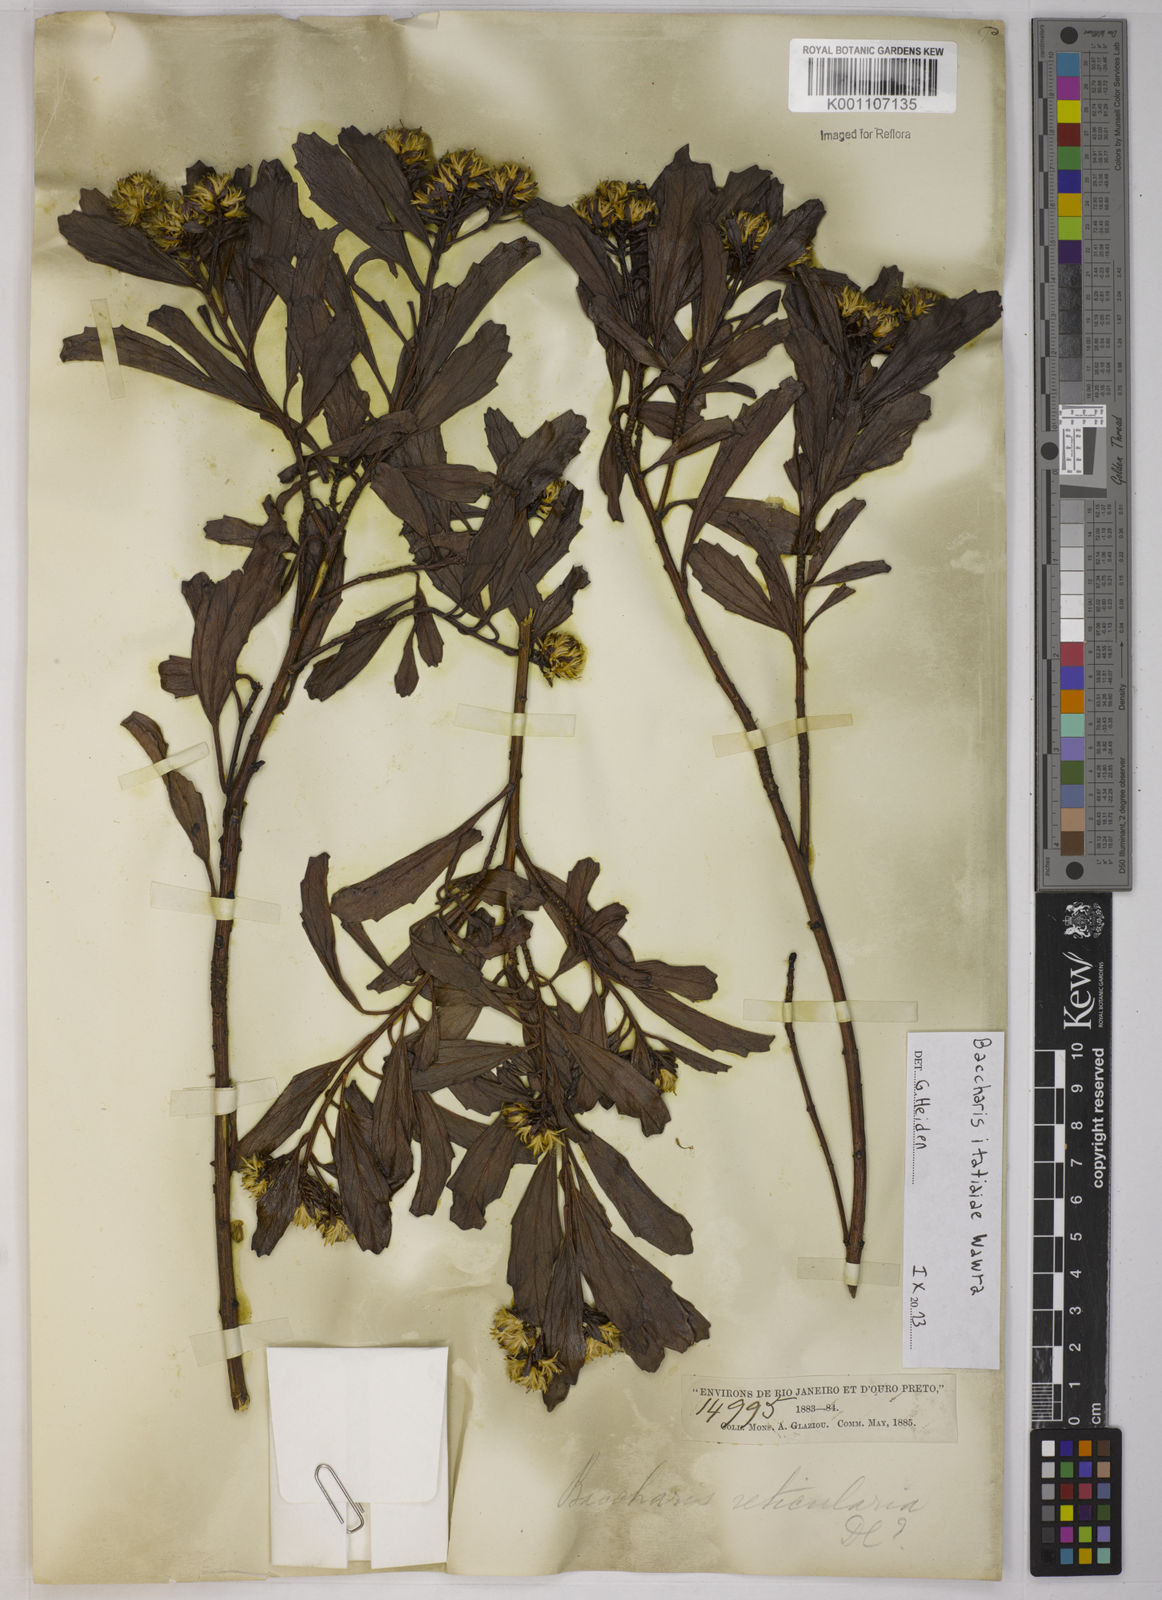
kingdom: Plantae
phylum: Tracheophyta
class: Magnoliopsida
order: Asterales
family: Asteraceae
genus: Baccharis
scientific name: Baccharis itatiaiae
